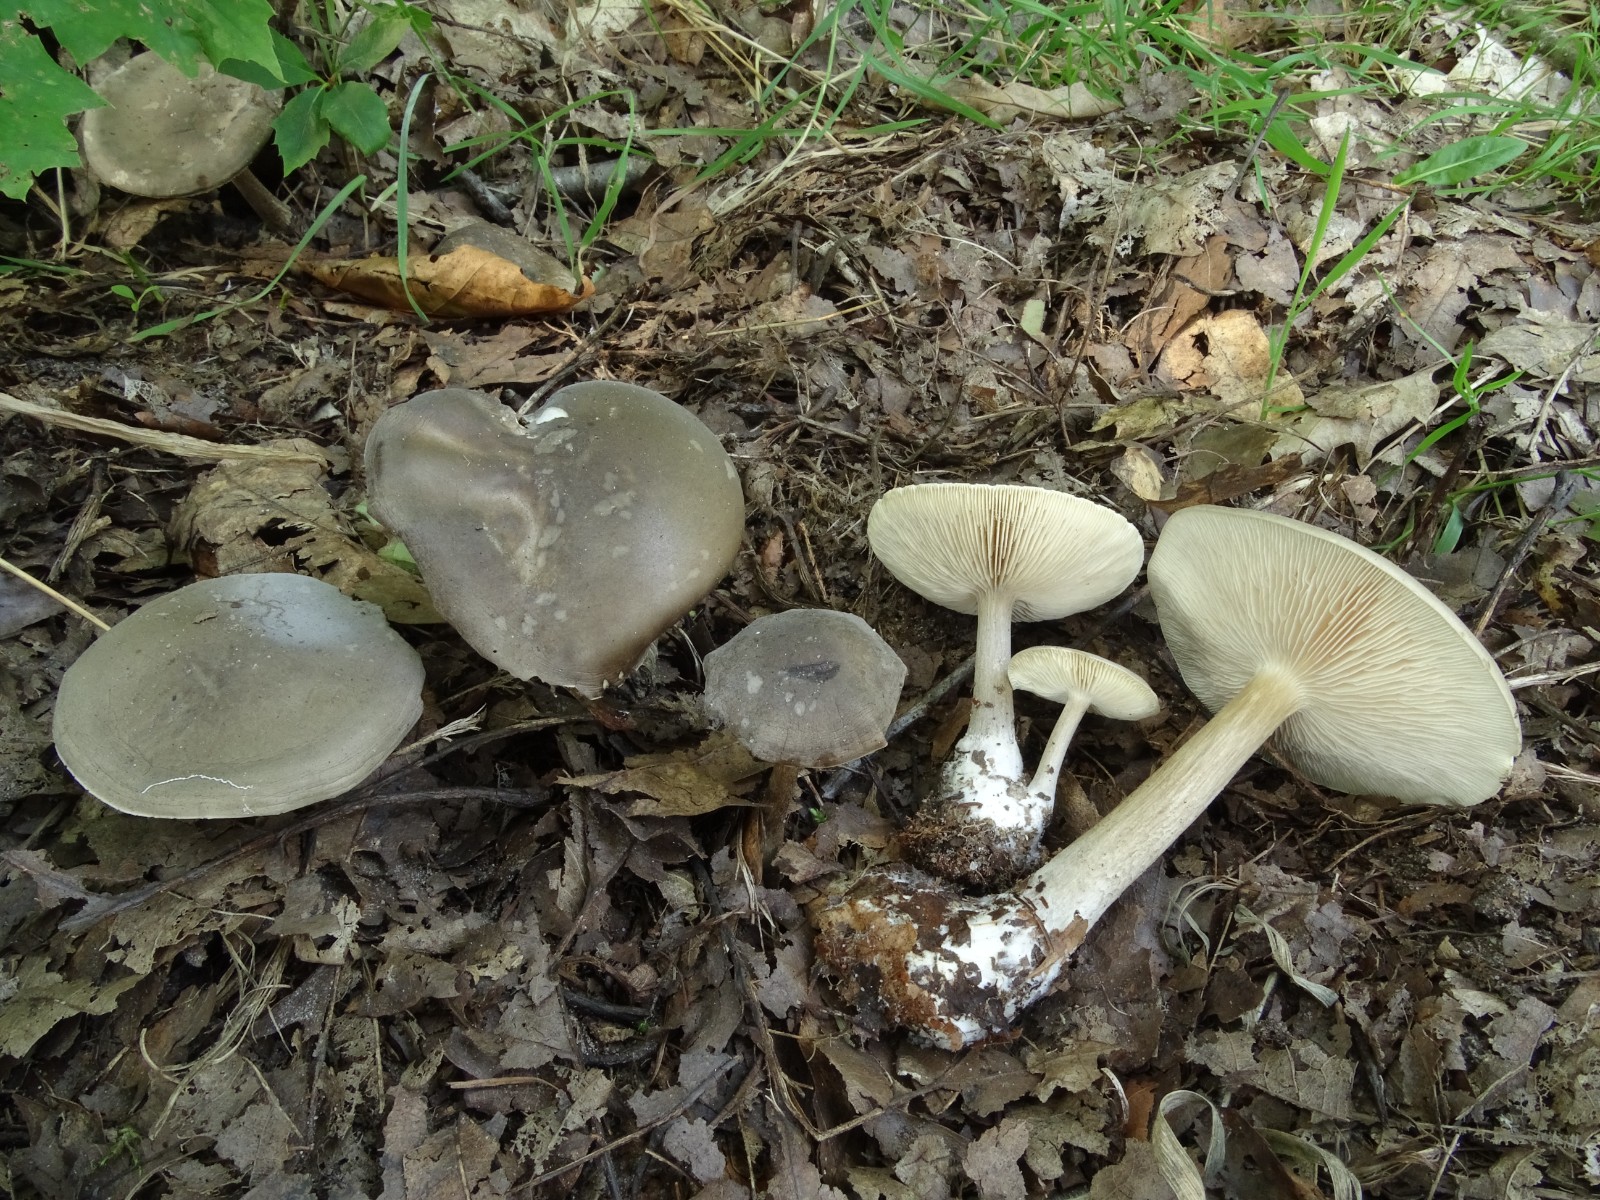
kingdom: Fungi
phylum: Basidiomycota
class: Agaricomycetes
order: Agaricales
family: Tricholomataceae
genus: Melanoleuca
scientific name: Melanoleuca
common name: munkehat
